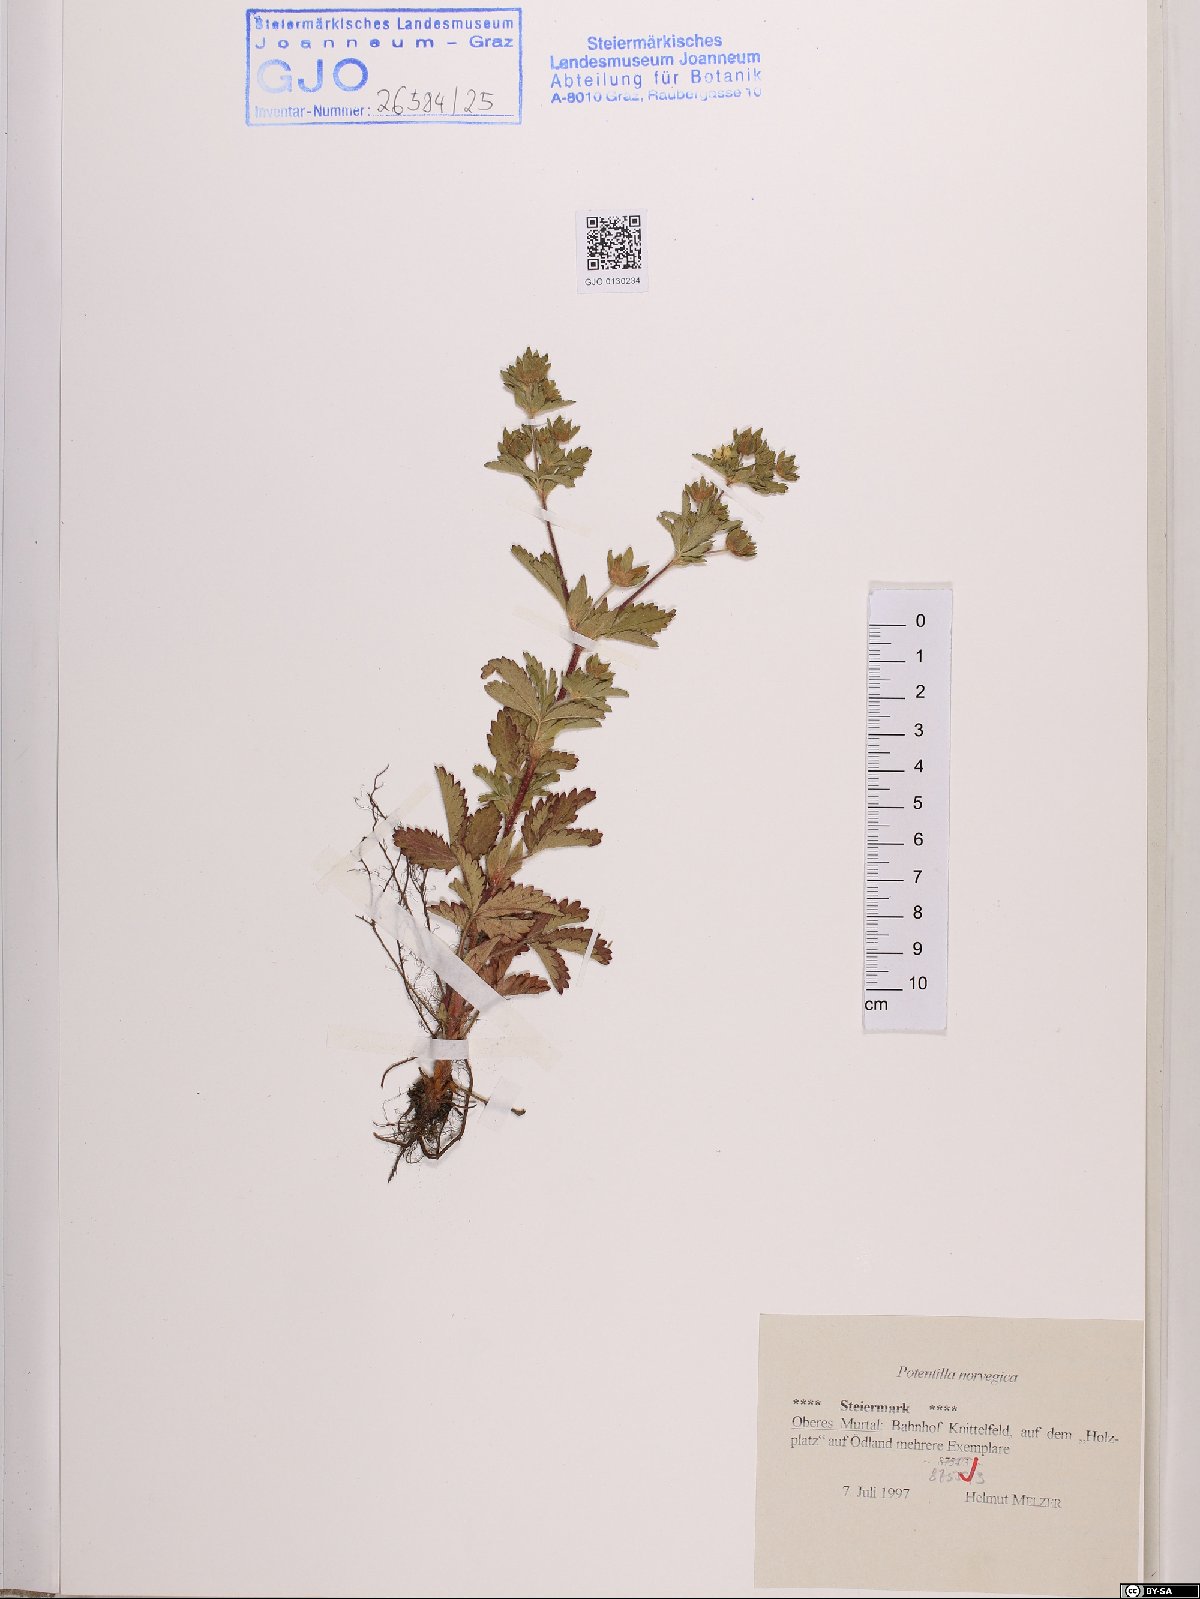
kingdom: Plantae
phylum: Tracheophyta
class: Magnoliopsida
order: Rosales
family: Rosaceae
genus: Potentilla
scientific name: Potentilla norvegica
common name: Ternate-leaved cinquefoil
